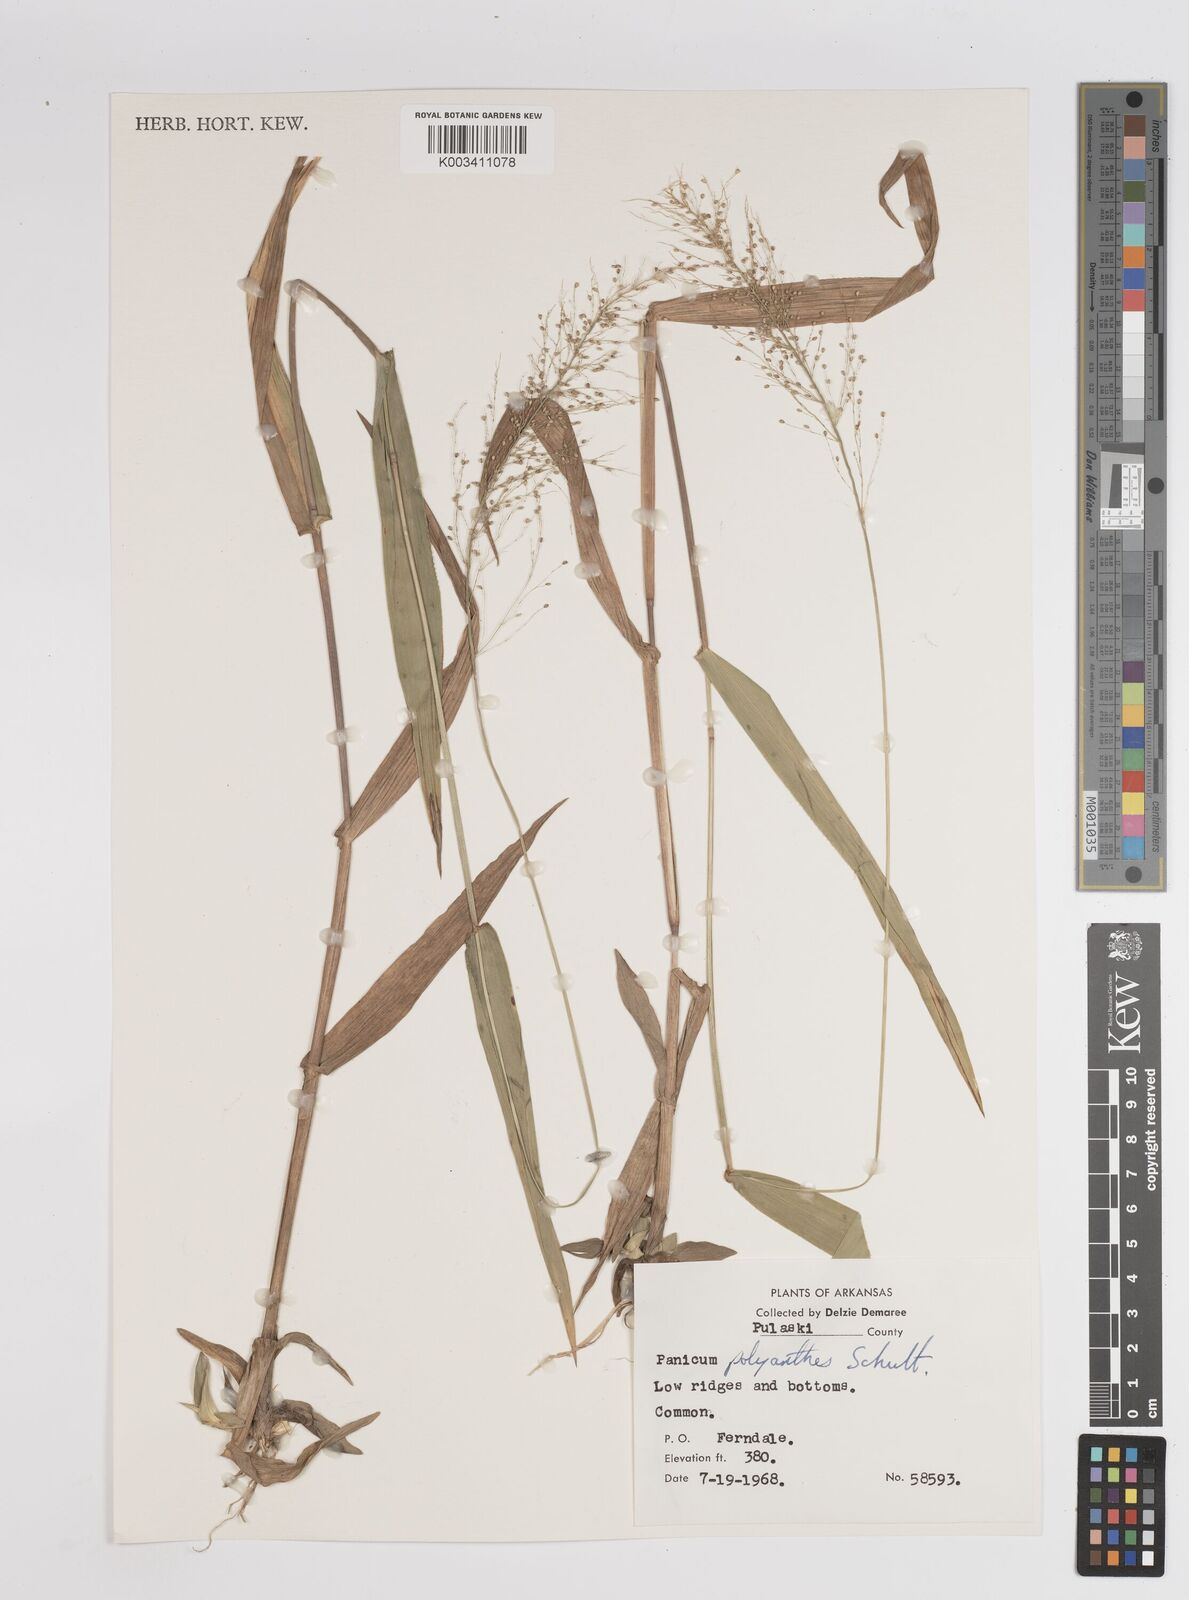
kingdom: Plantae
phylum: Tracheophyta
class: Liliopsida
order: Poales
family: Poaceae
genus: Dichanthelium
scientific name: Dichanthelium polyanthes
